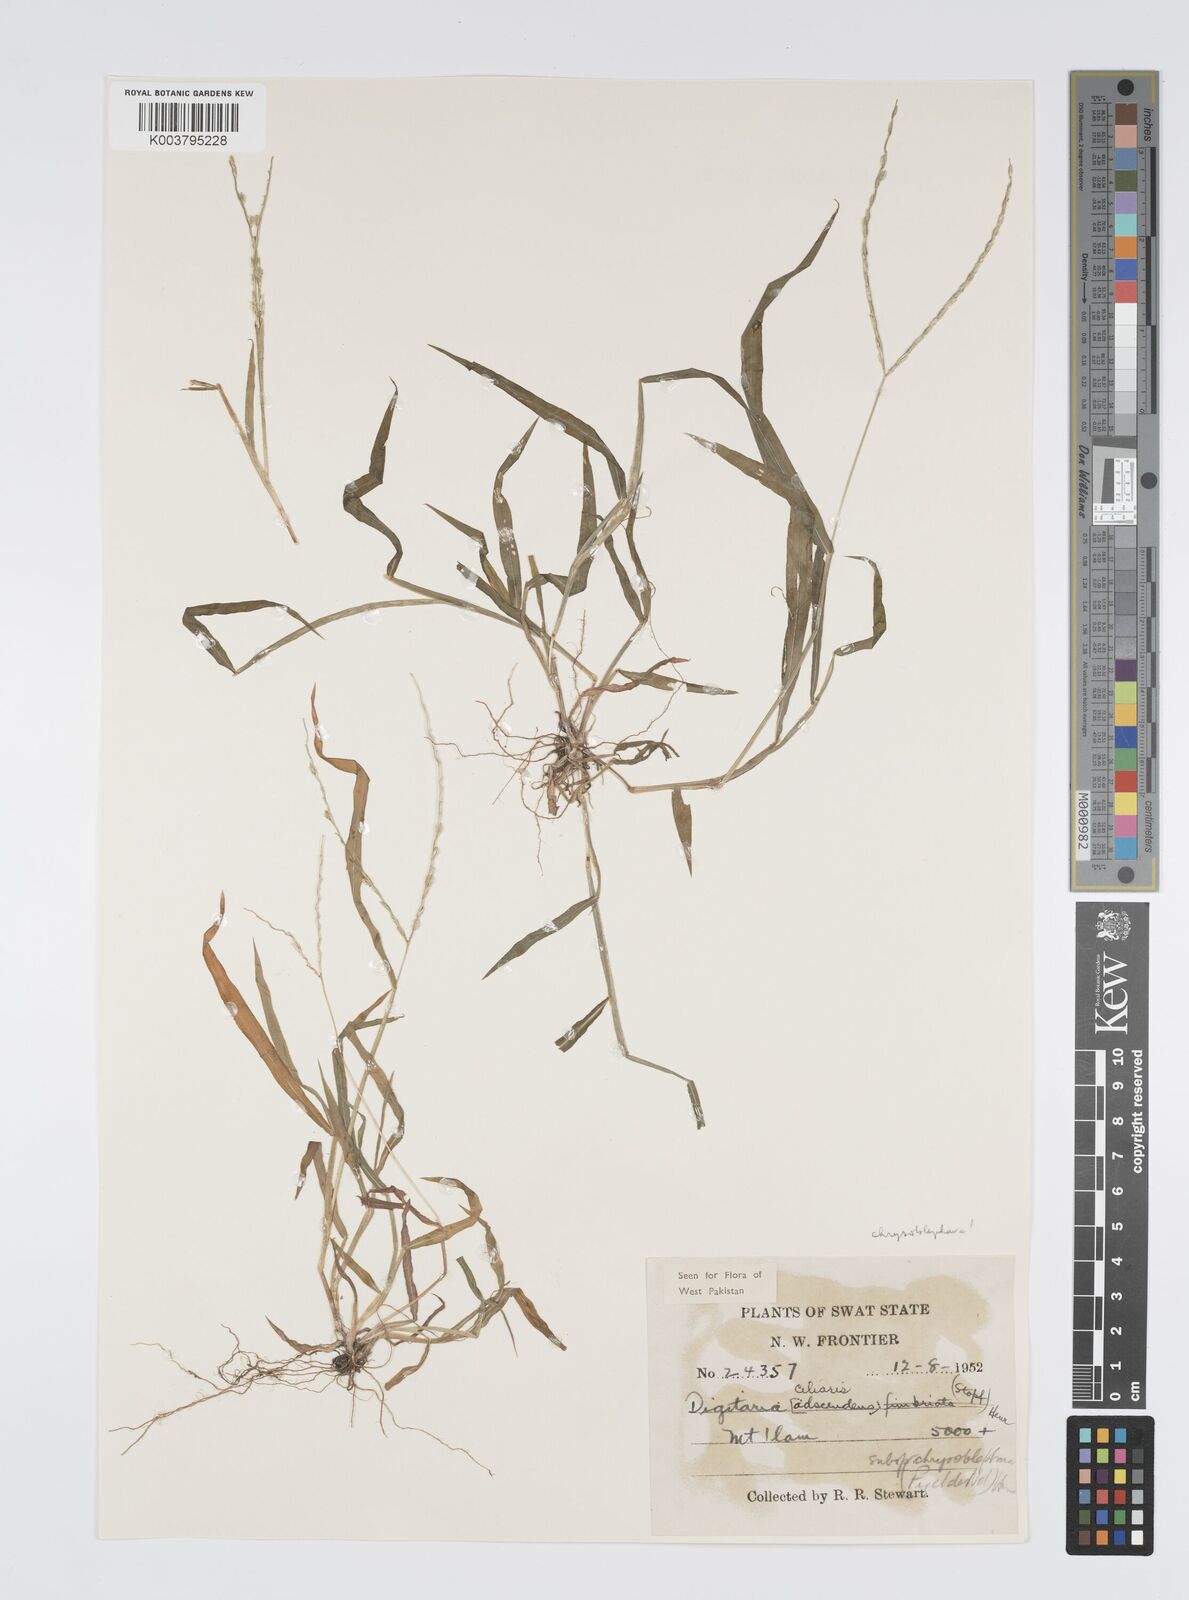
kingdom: Plantae
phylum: Tracheophyta
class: Liliopsida
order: Poales
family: Poaceae
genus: Digitaria
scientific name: Digitaria ciliaris
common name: Tropical finger-grass
